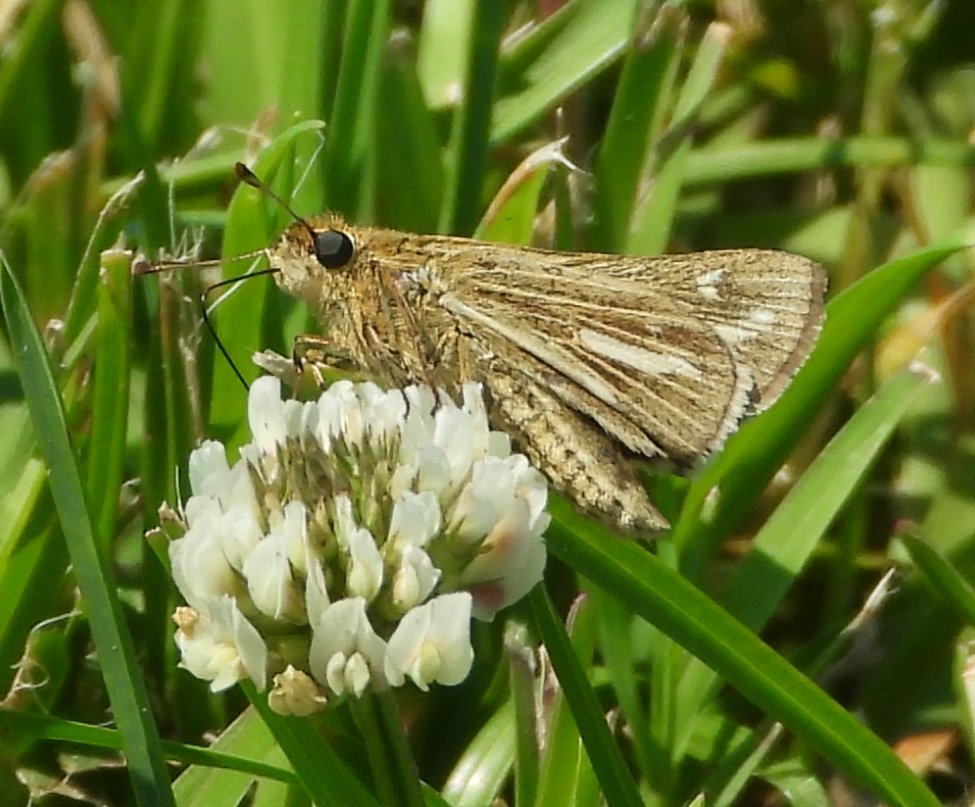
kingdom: Animalia
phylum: Arthropoda
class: Insecta
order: Lepidoptera
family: Hesperiidae
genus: Panoquina
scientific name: Panoquina panoquin
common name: Salt Marsh Skipper
